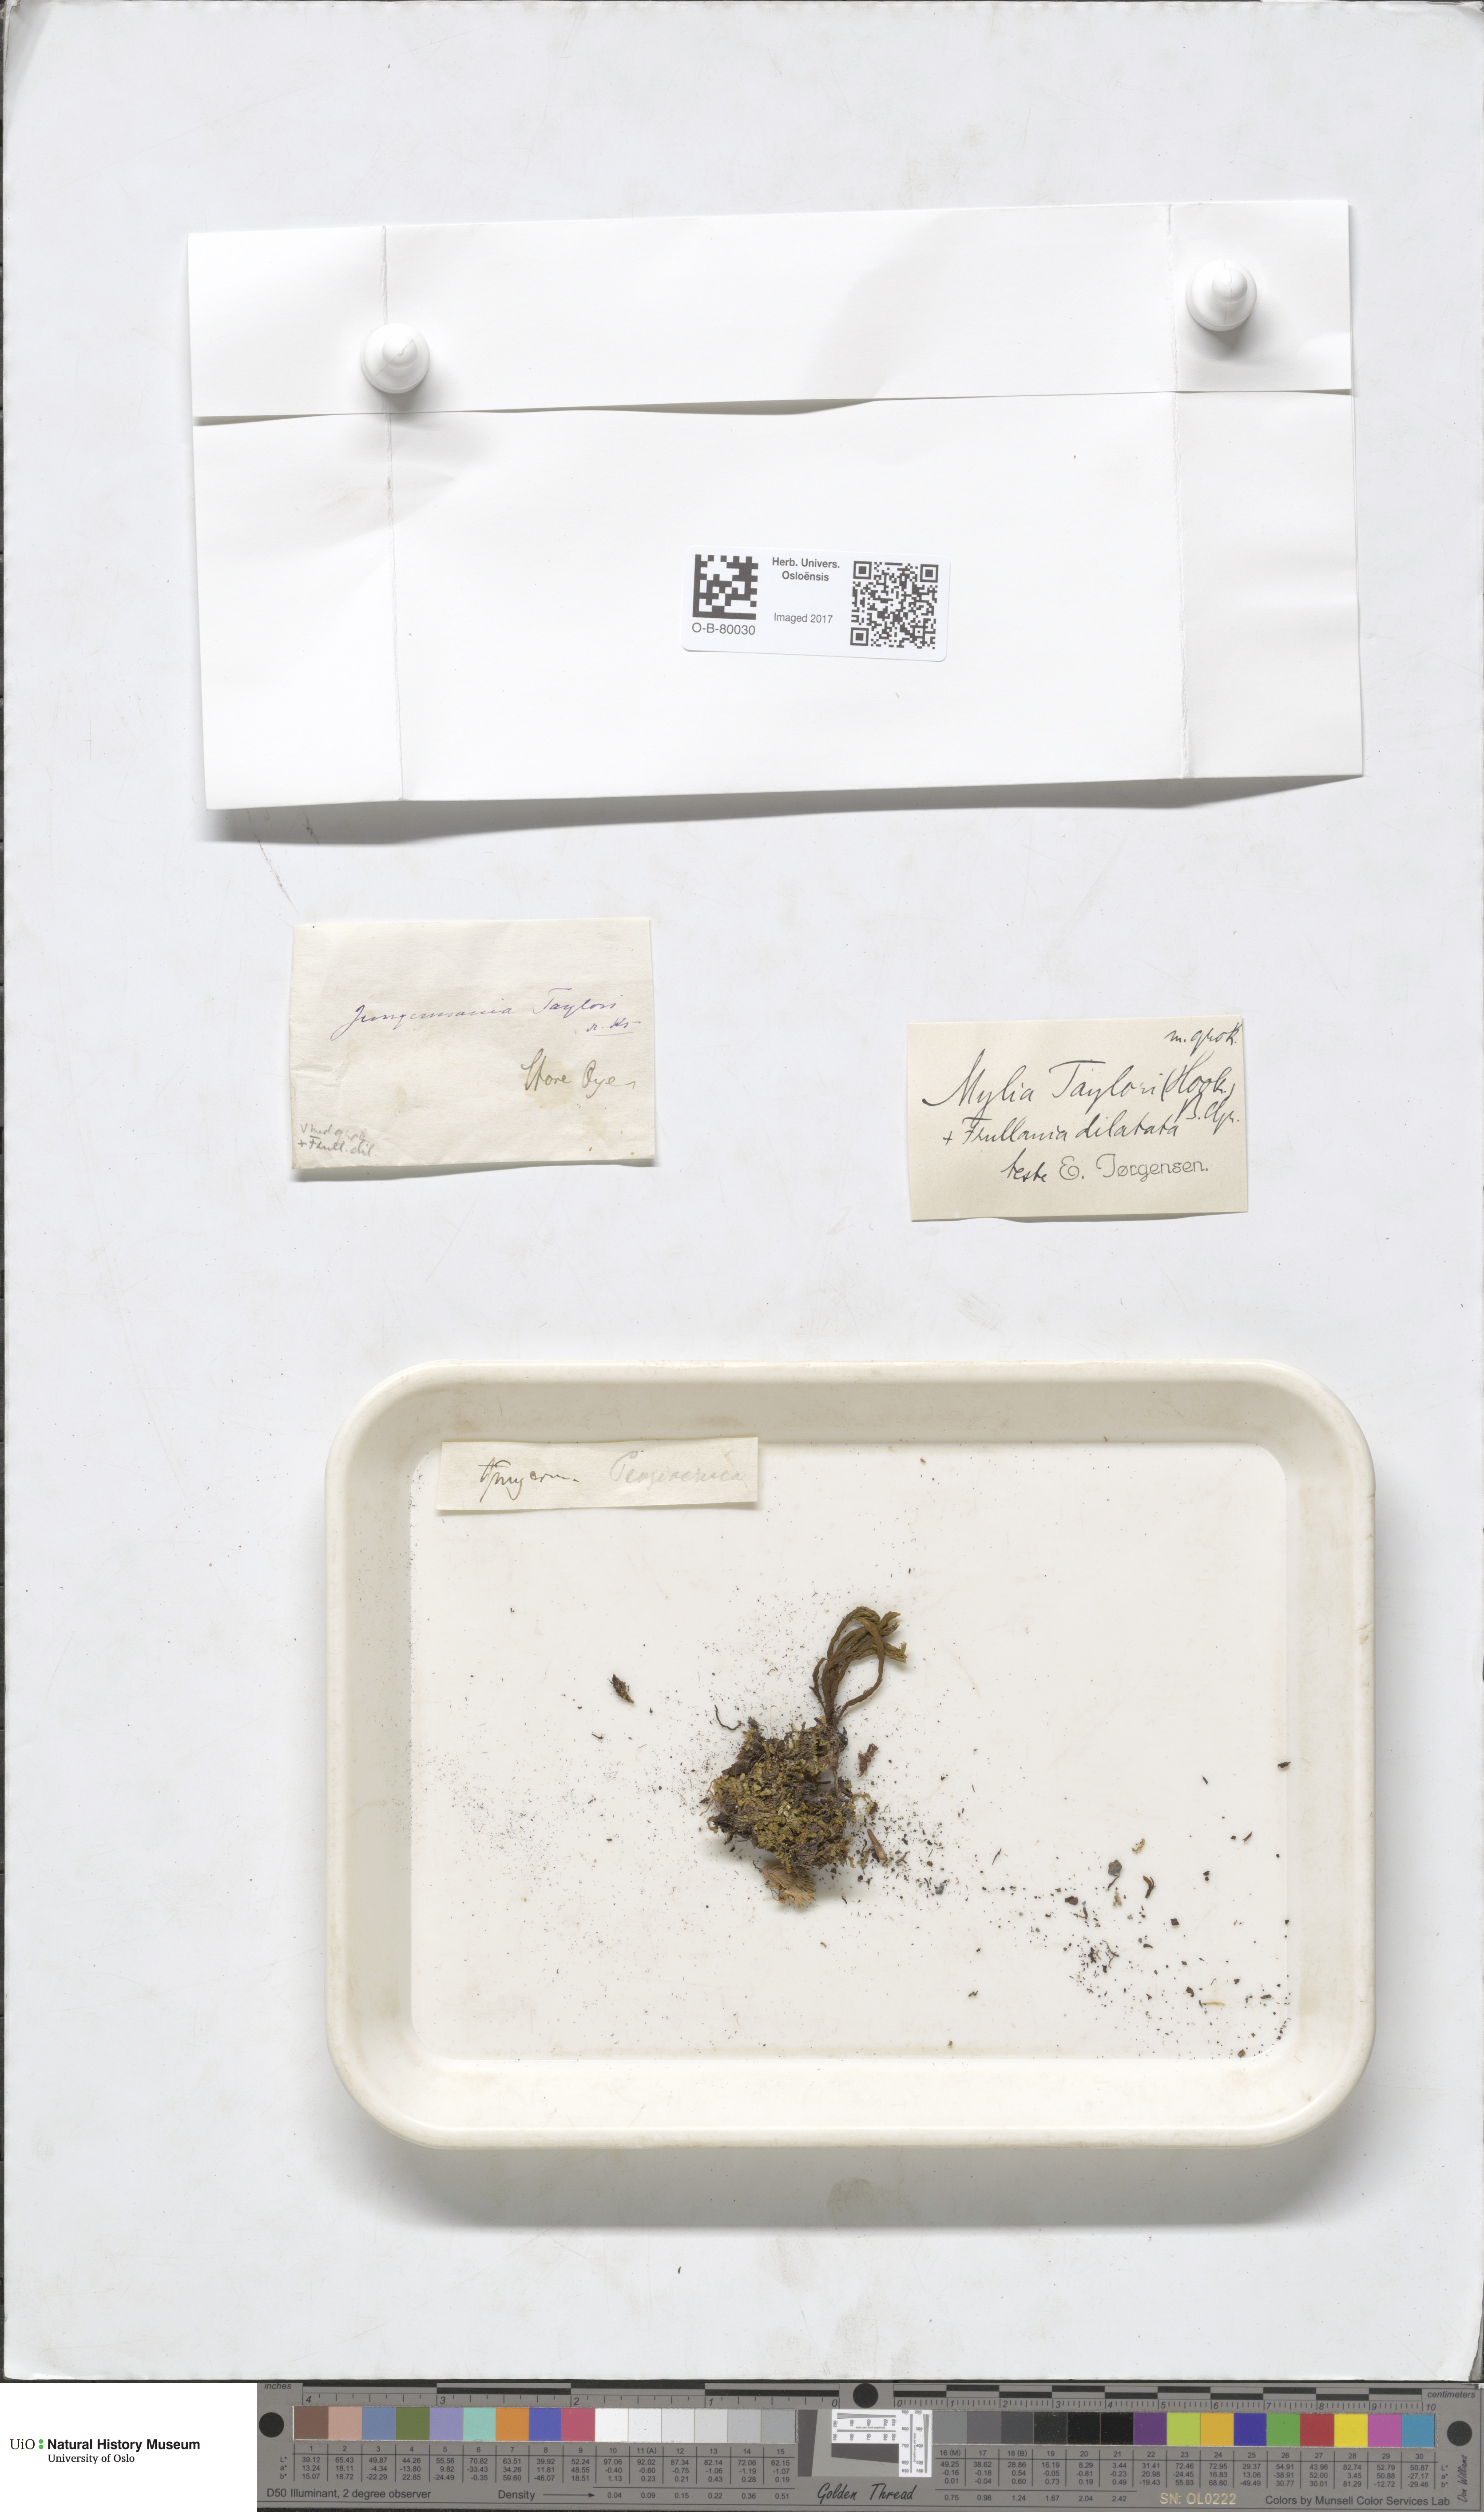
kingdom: Plantae
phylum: Marchantiophyta
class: Jungermanniopsida
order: Jungermanniales
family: Myliaceae
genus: Mylia
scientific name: Mylia taylorii
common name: Taylor s flapwort
